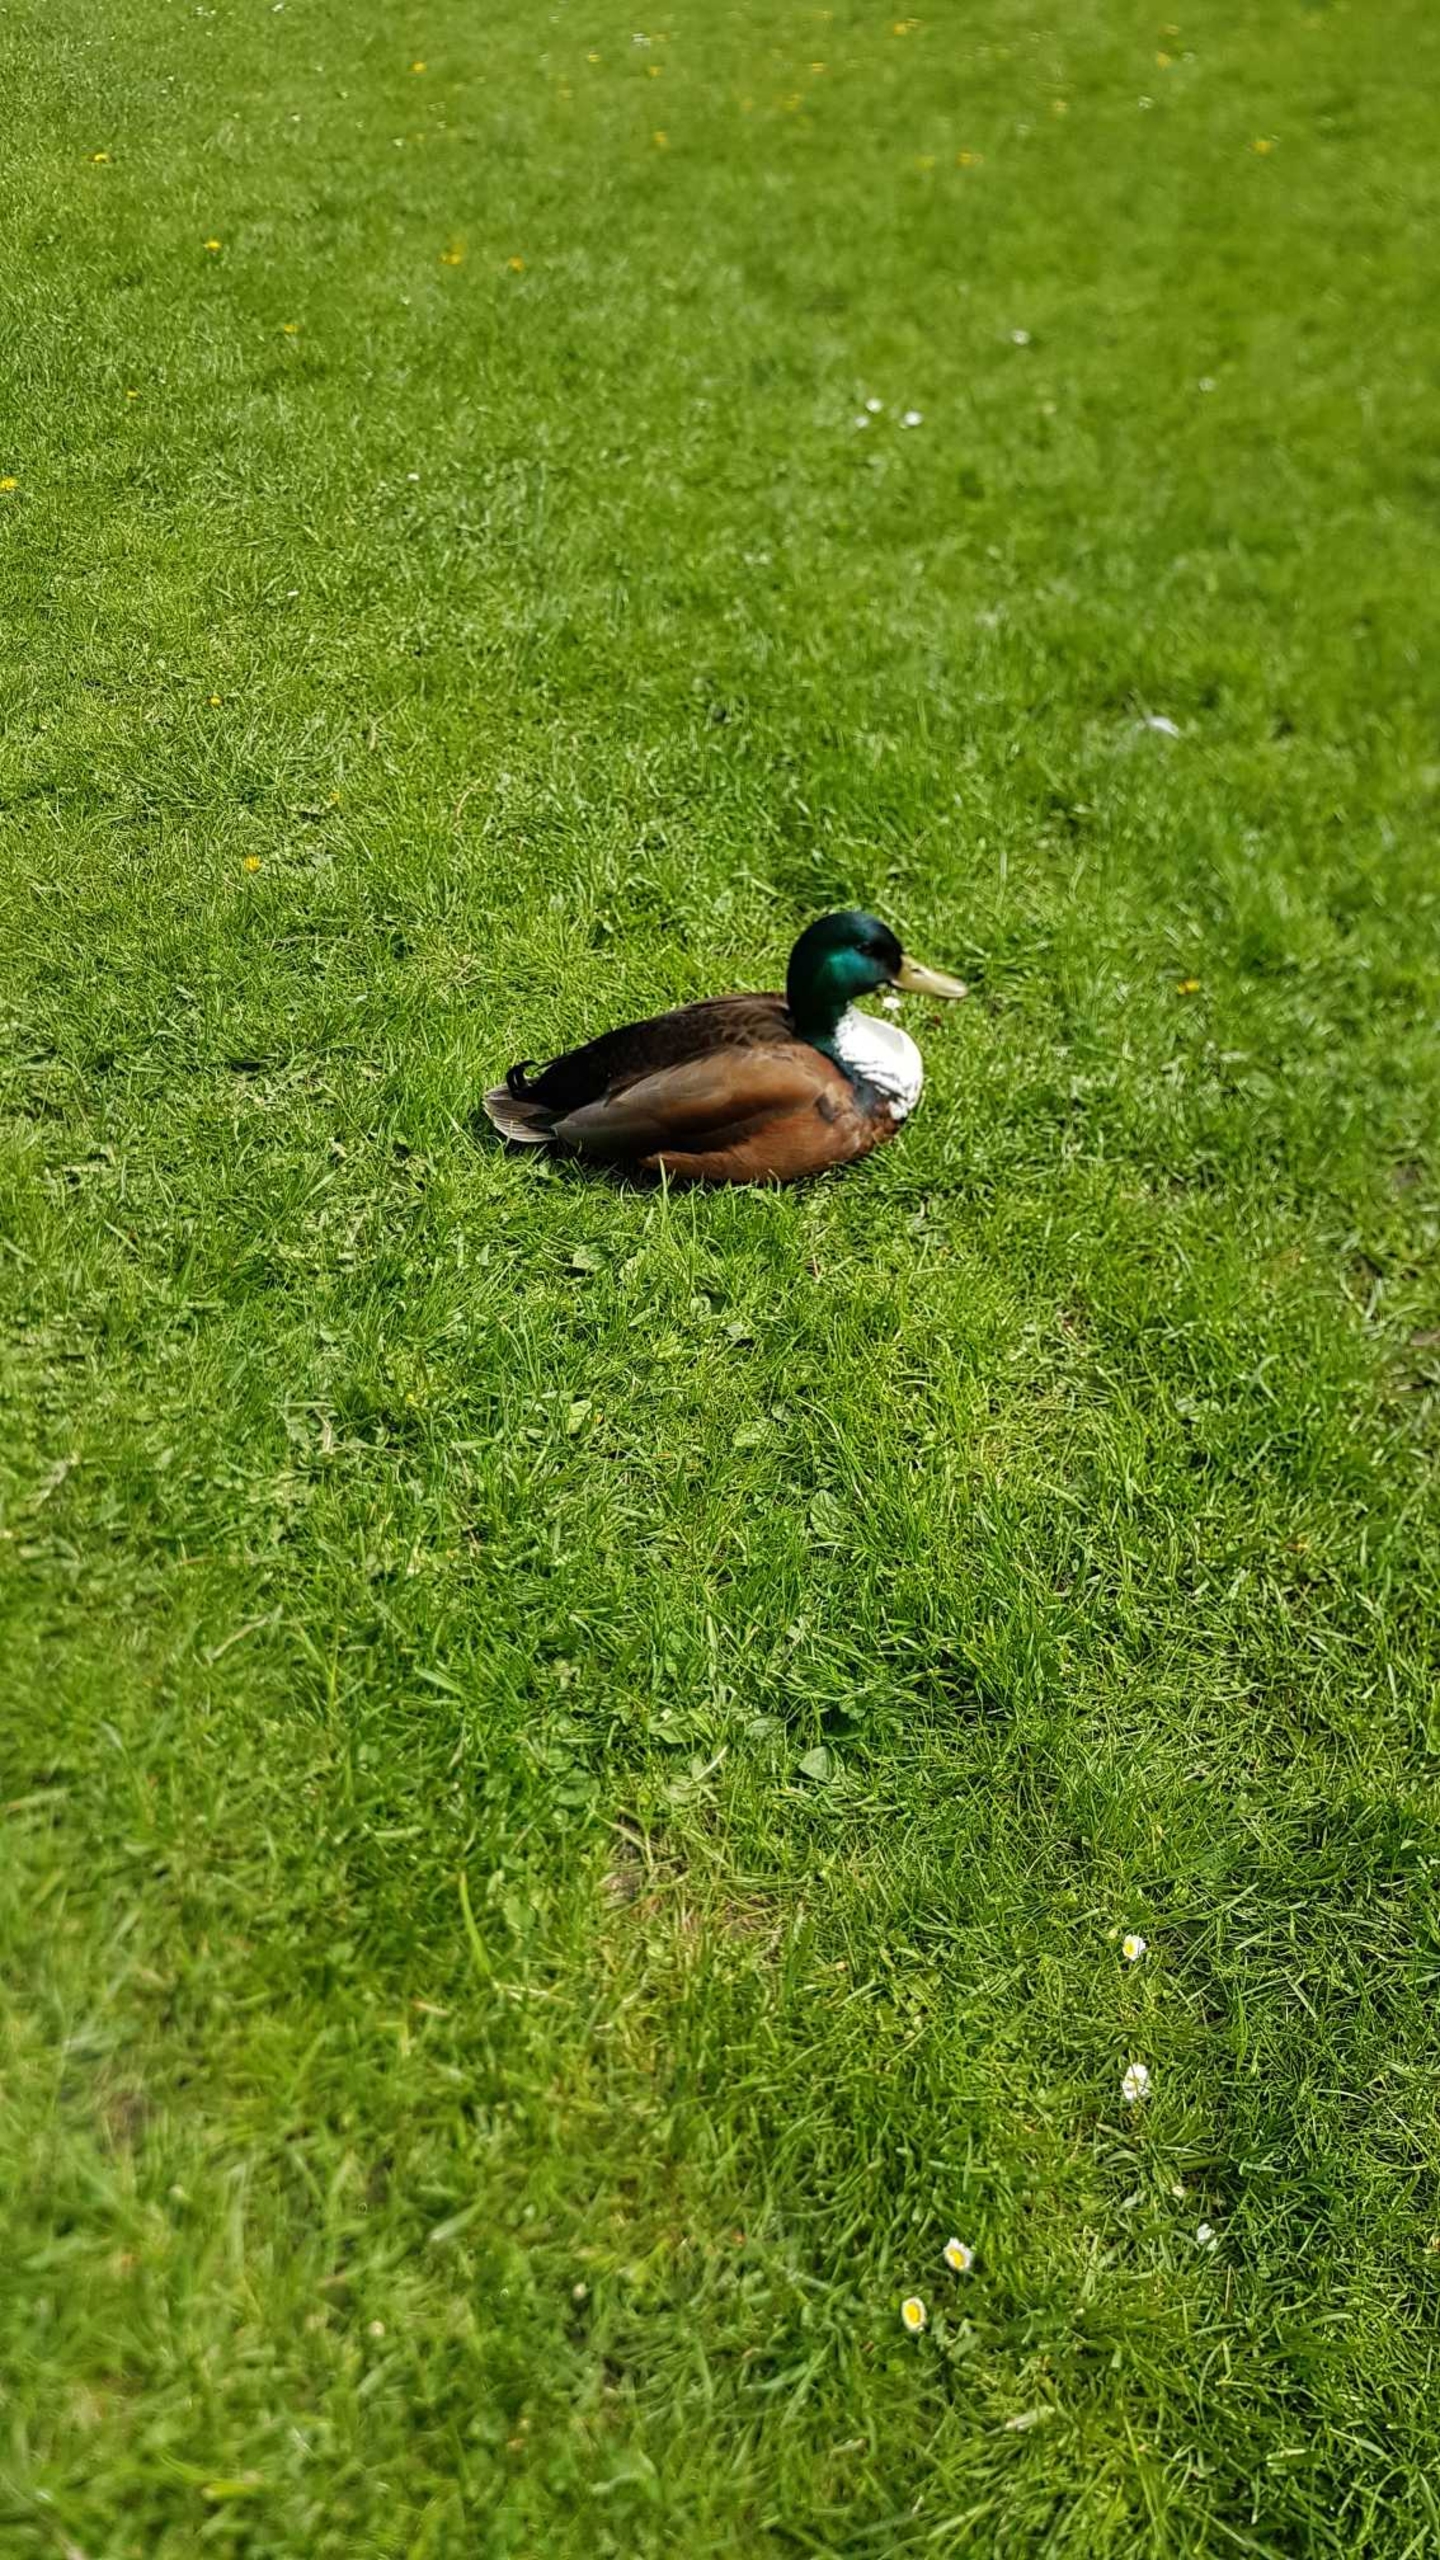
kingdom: Animalia
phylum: Chordata
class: Aves
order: Anseriformes
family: Anatidae
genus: Anas
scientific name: Anas platyrhynchos
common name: Gråand
